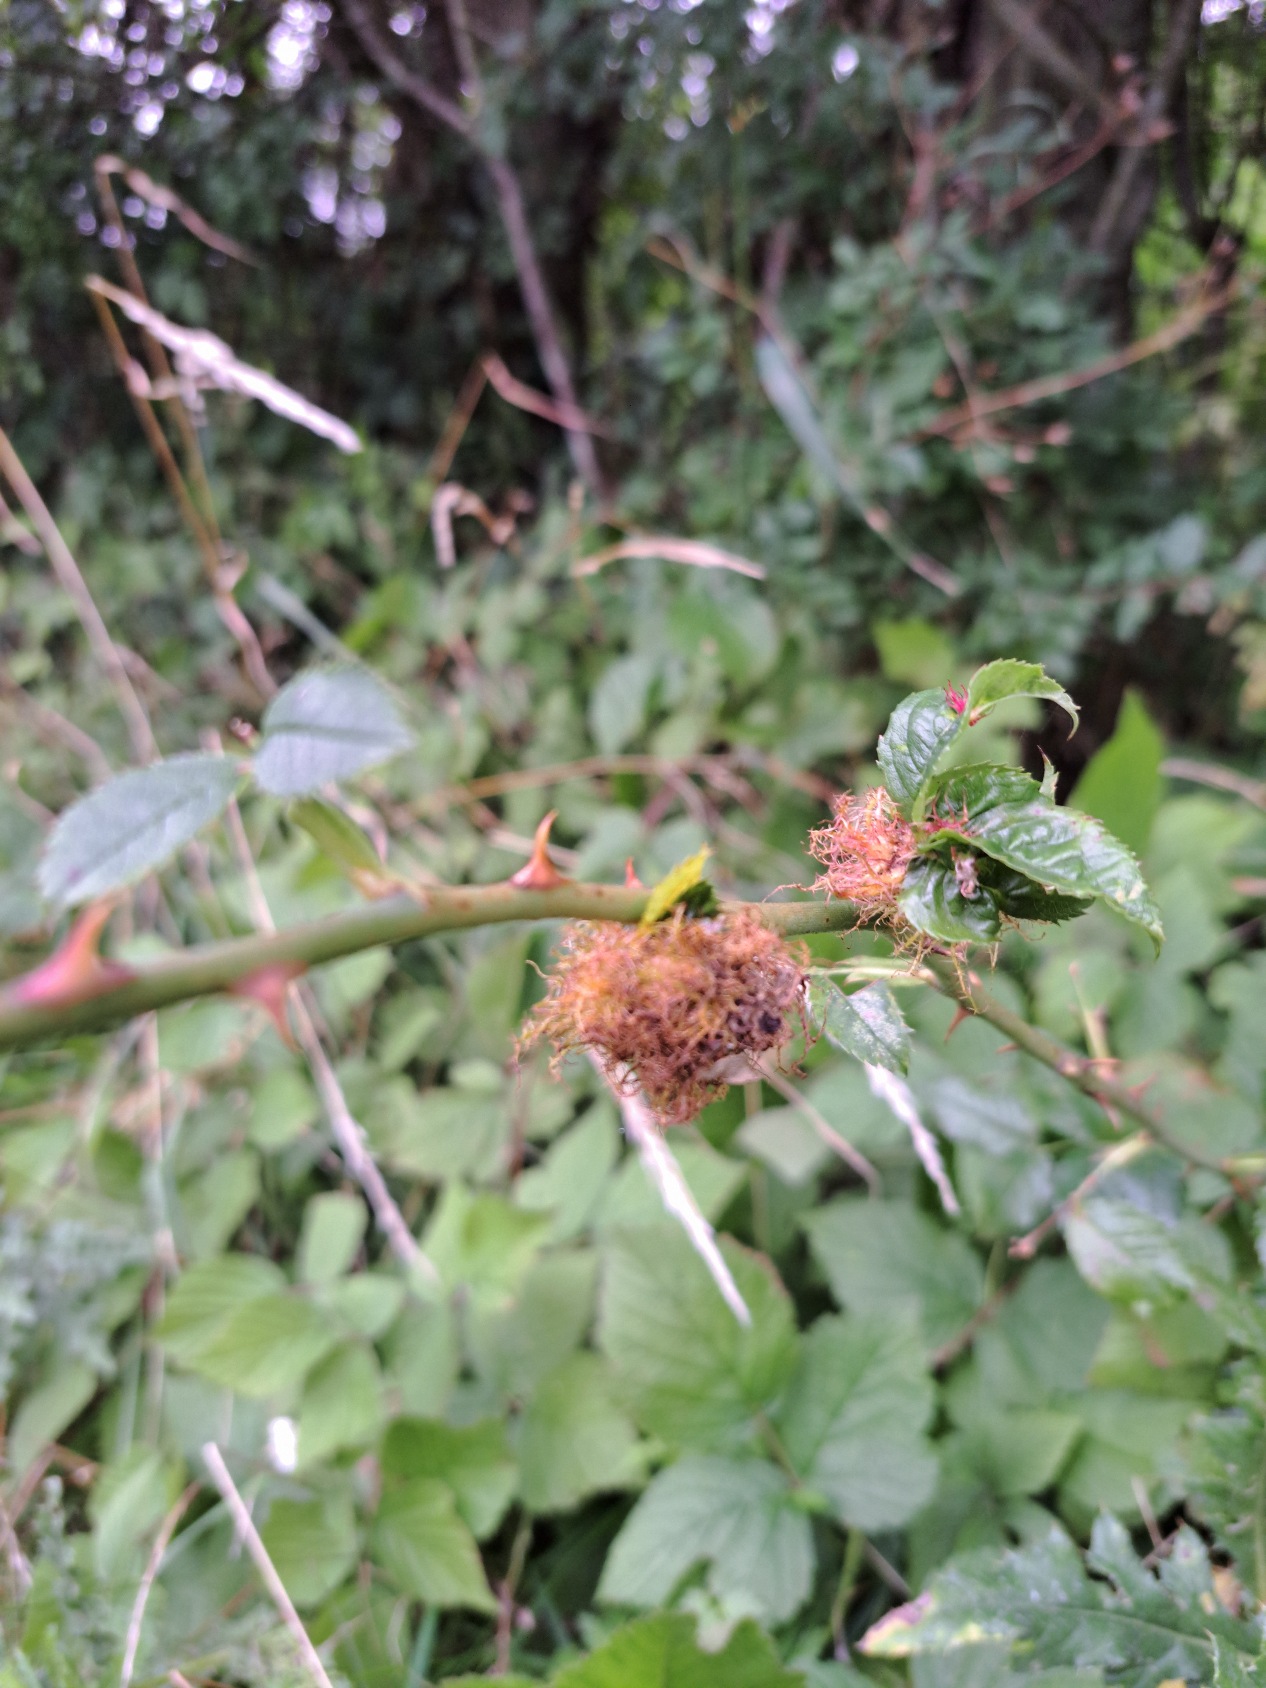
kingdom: Animalia
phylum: Arthropoda
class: Insecta
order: Hymenoptera
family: Cynipidae
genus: Diplolepis
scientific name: Diplolepis rosae
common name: Bedeguargalhveps
